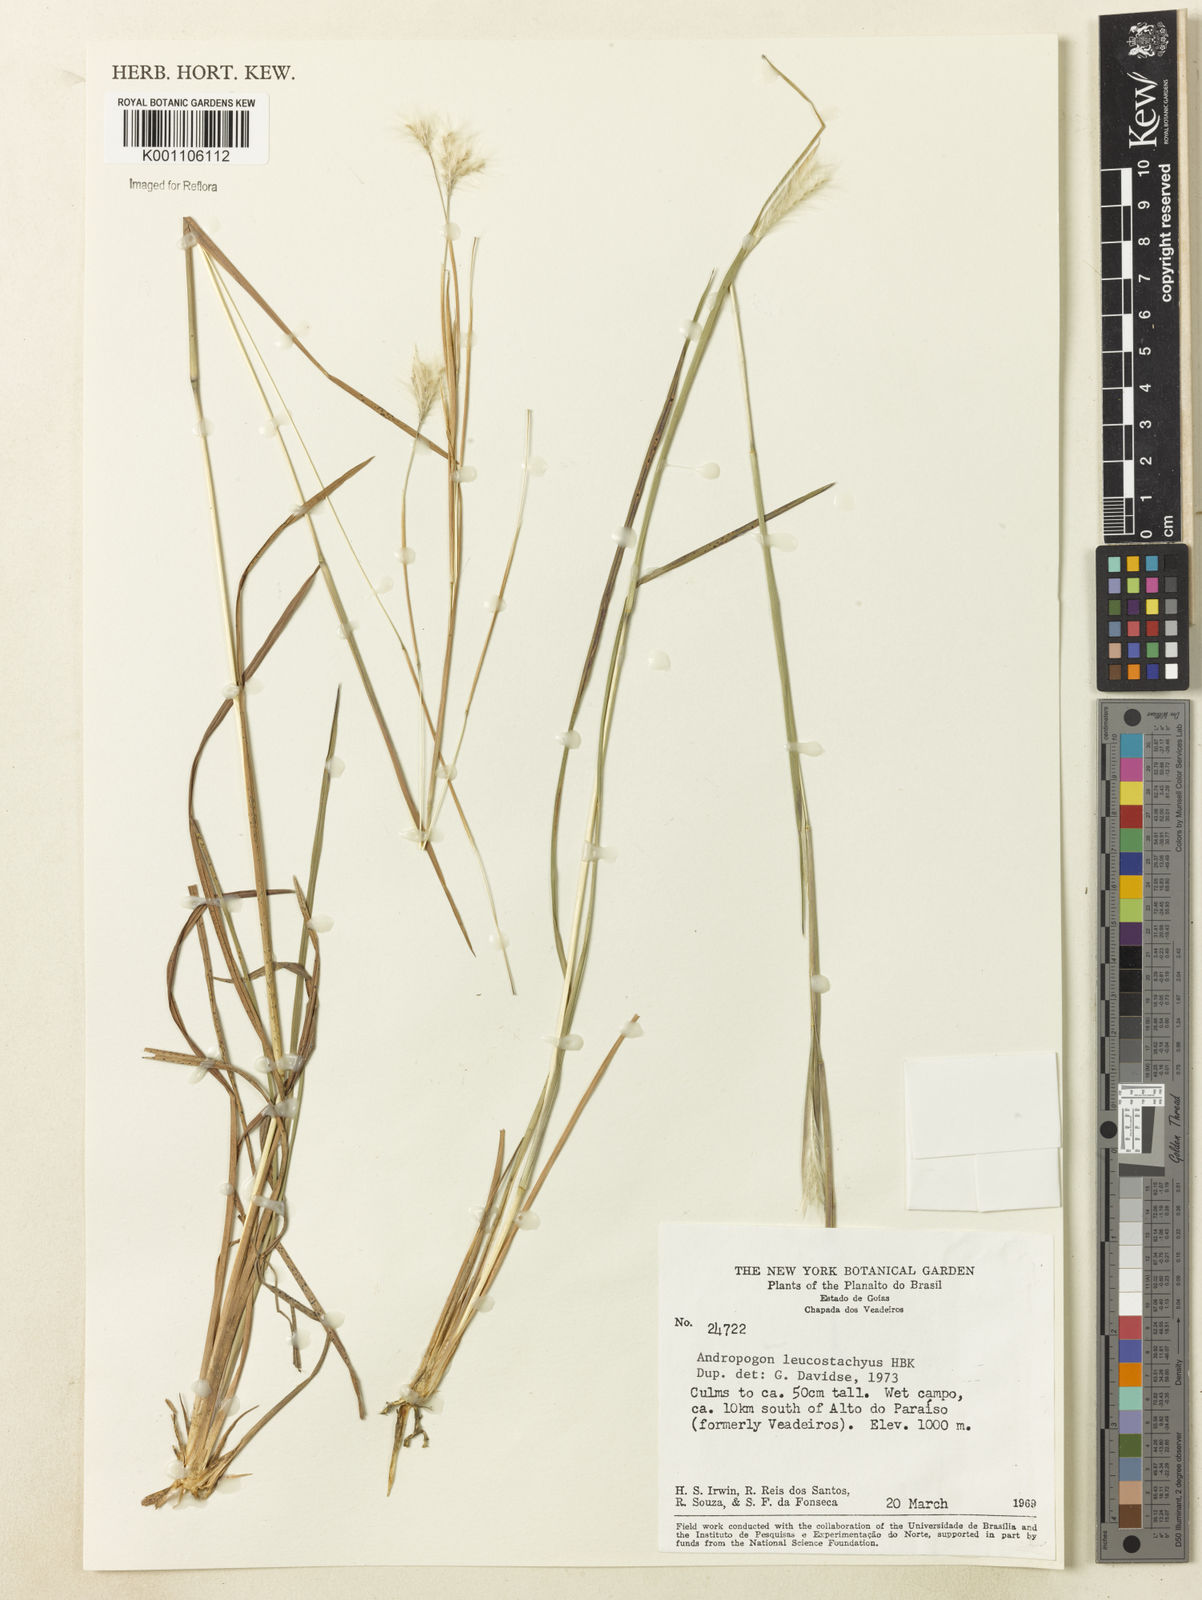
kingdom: Plantae
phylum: Tracheophyta
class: Liliopsida
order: Poales
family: Poaceae
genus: Andropogon
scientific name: Andropogon leucostachyus
